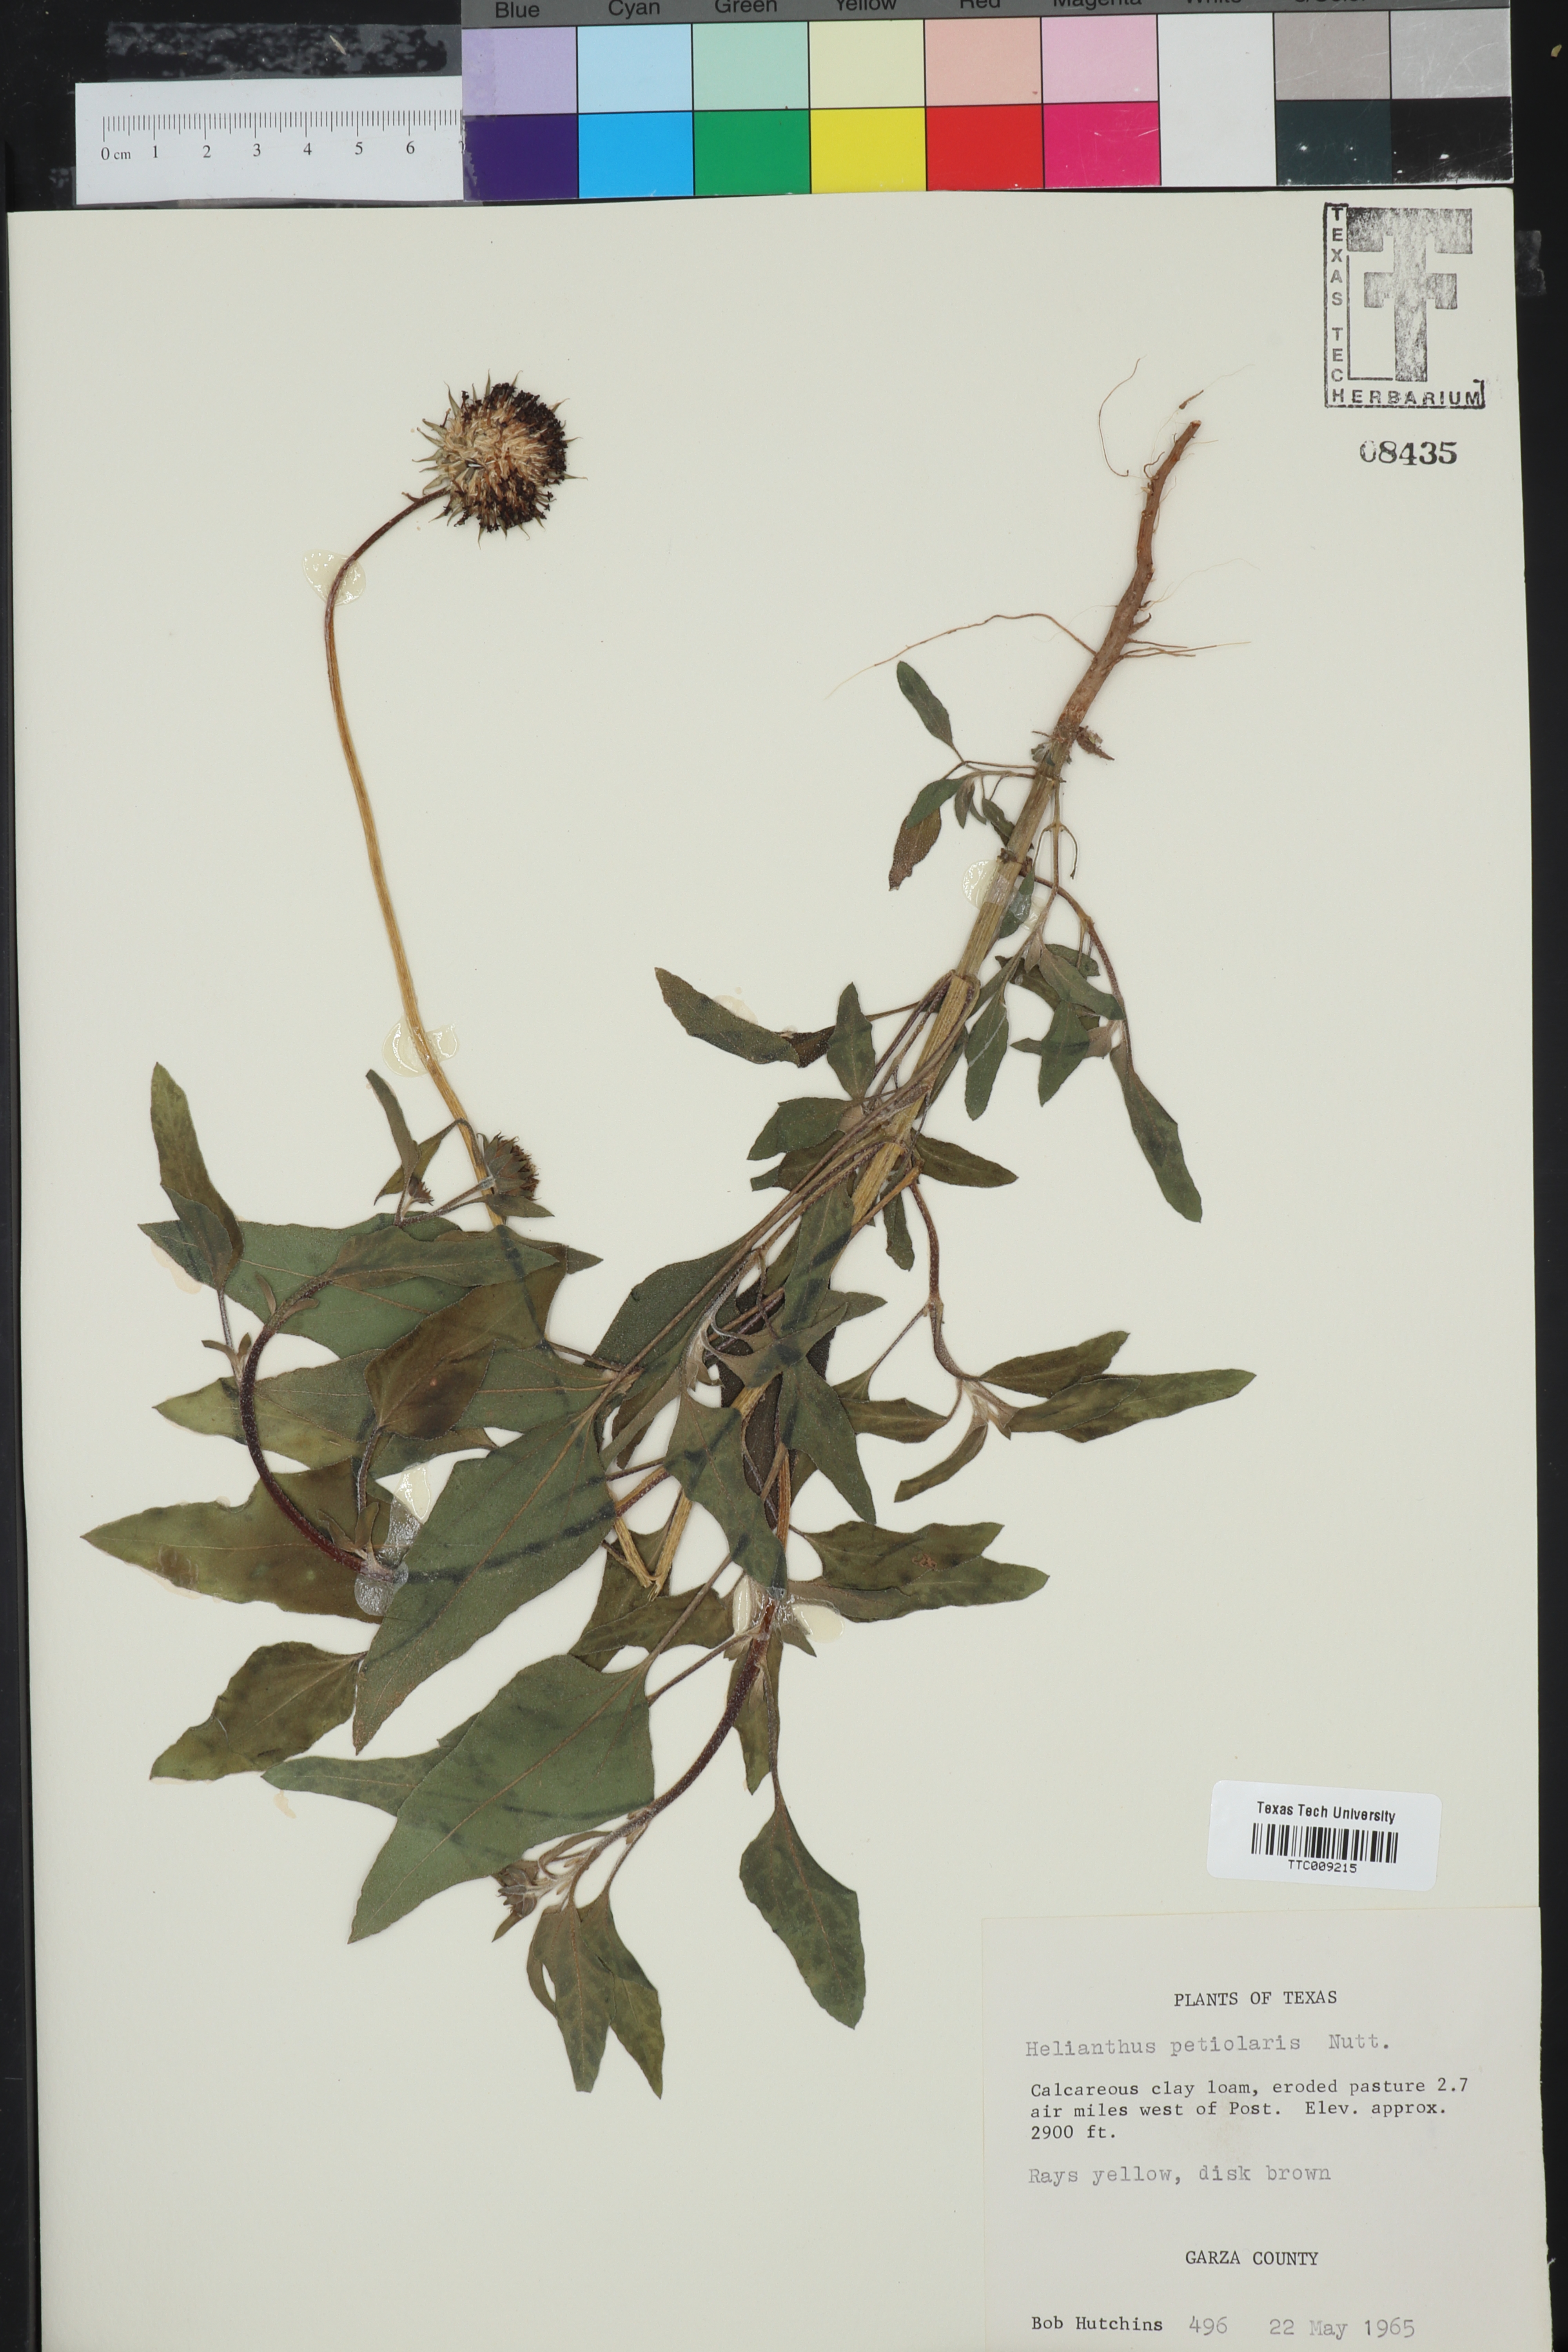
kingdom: Plantae
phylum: Tracheophyta
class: Magnoliopsida
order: Asterales
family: Asteraceae
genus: Helianthus
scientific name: Helianthus petiolaris
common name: Lesser sunflower
